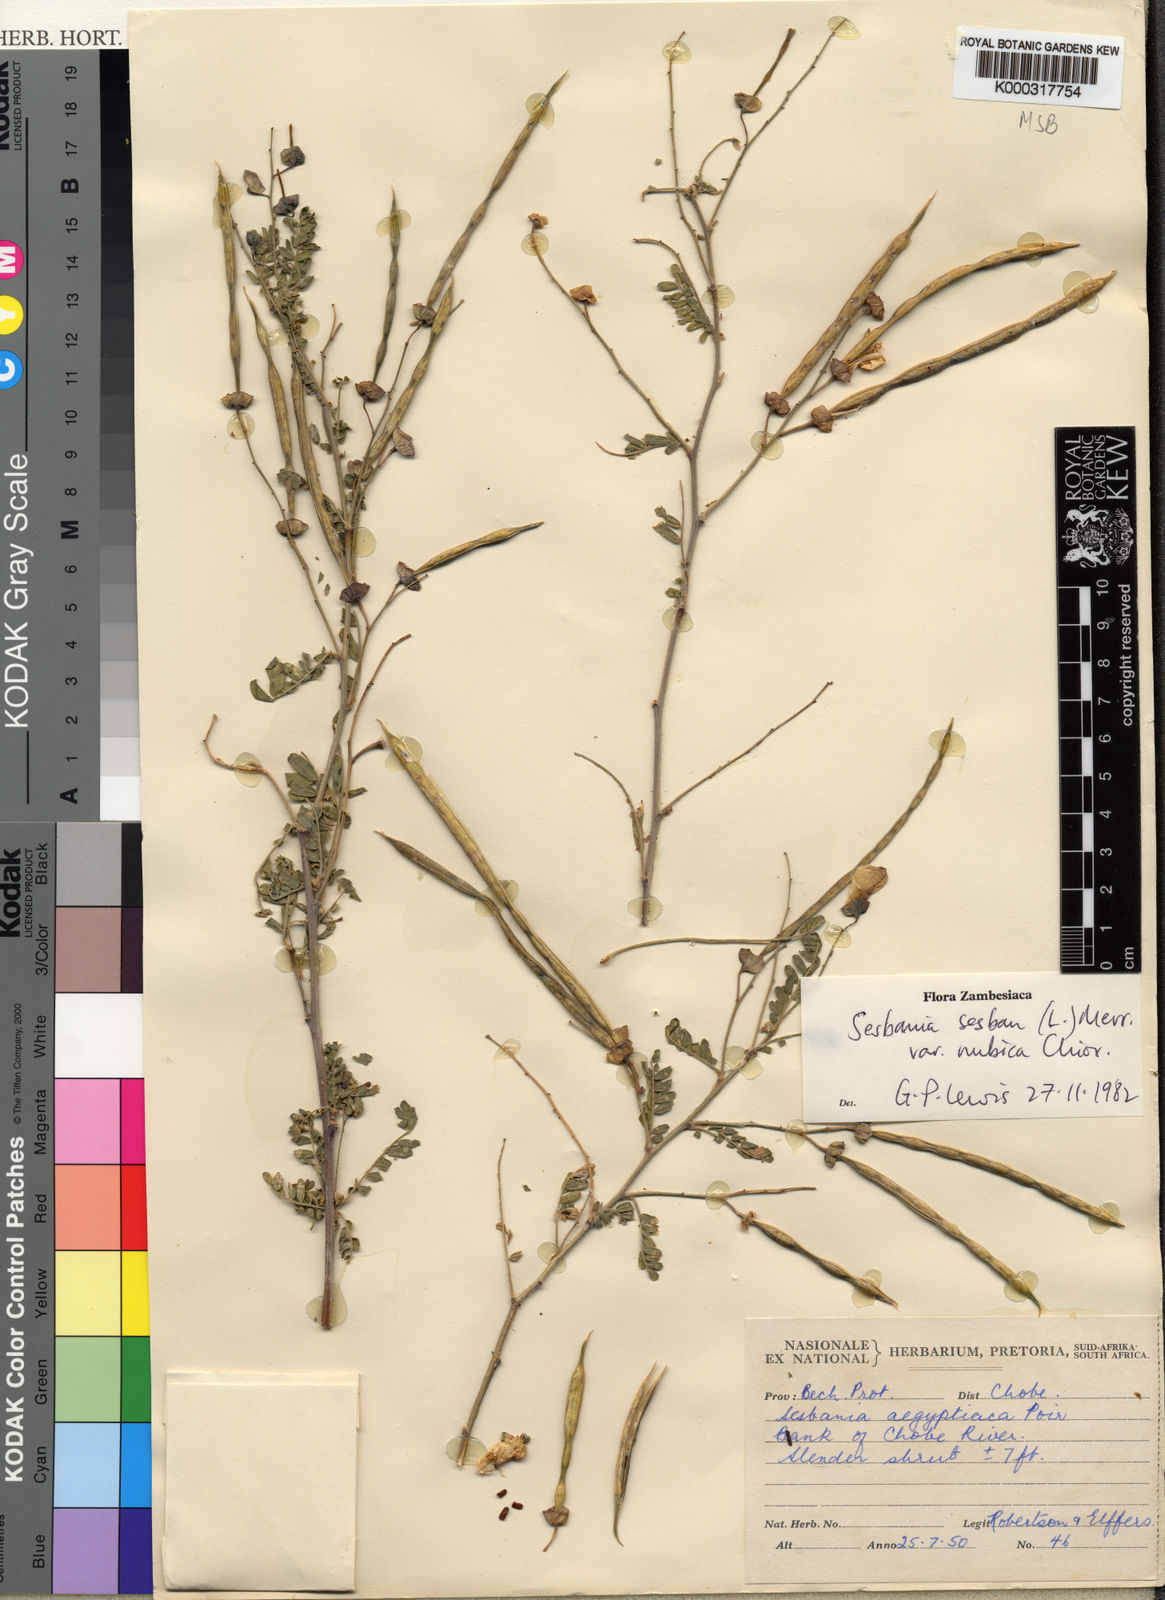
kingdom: Plantae
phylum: Tracheophyta
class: Magnoliopsida
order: Fabales
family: Fabaceae
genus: Sesbania
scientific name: Sesbania sesban
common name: Egyptian sesban
